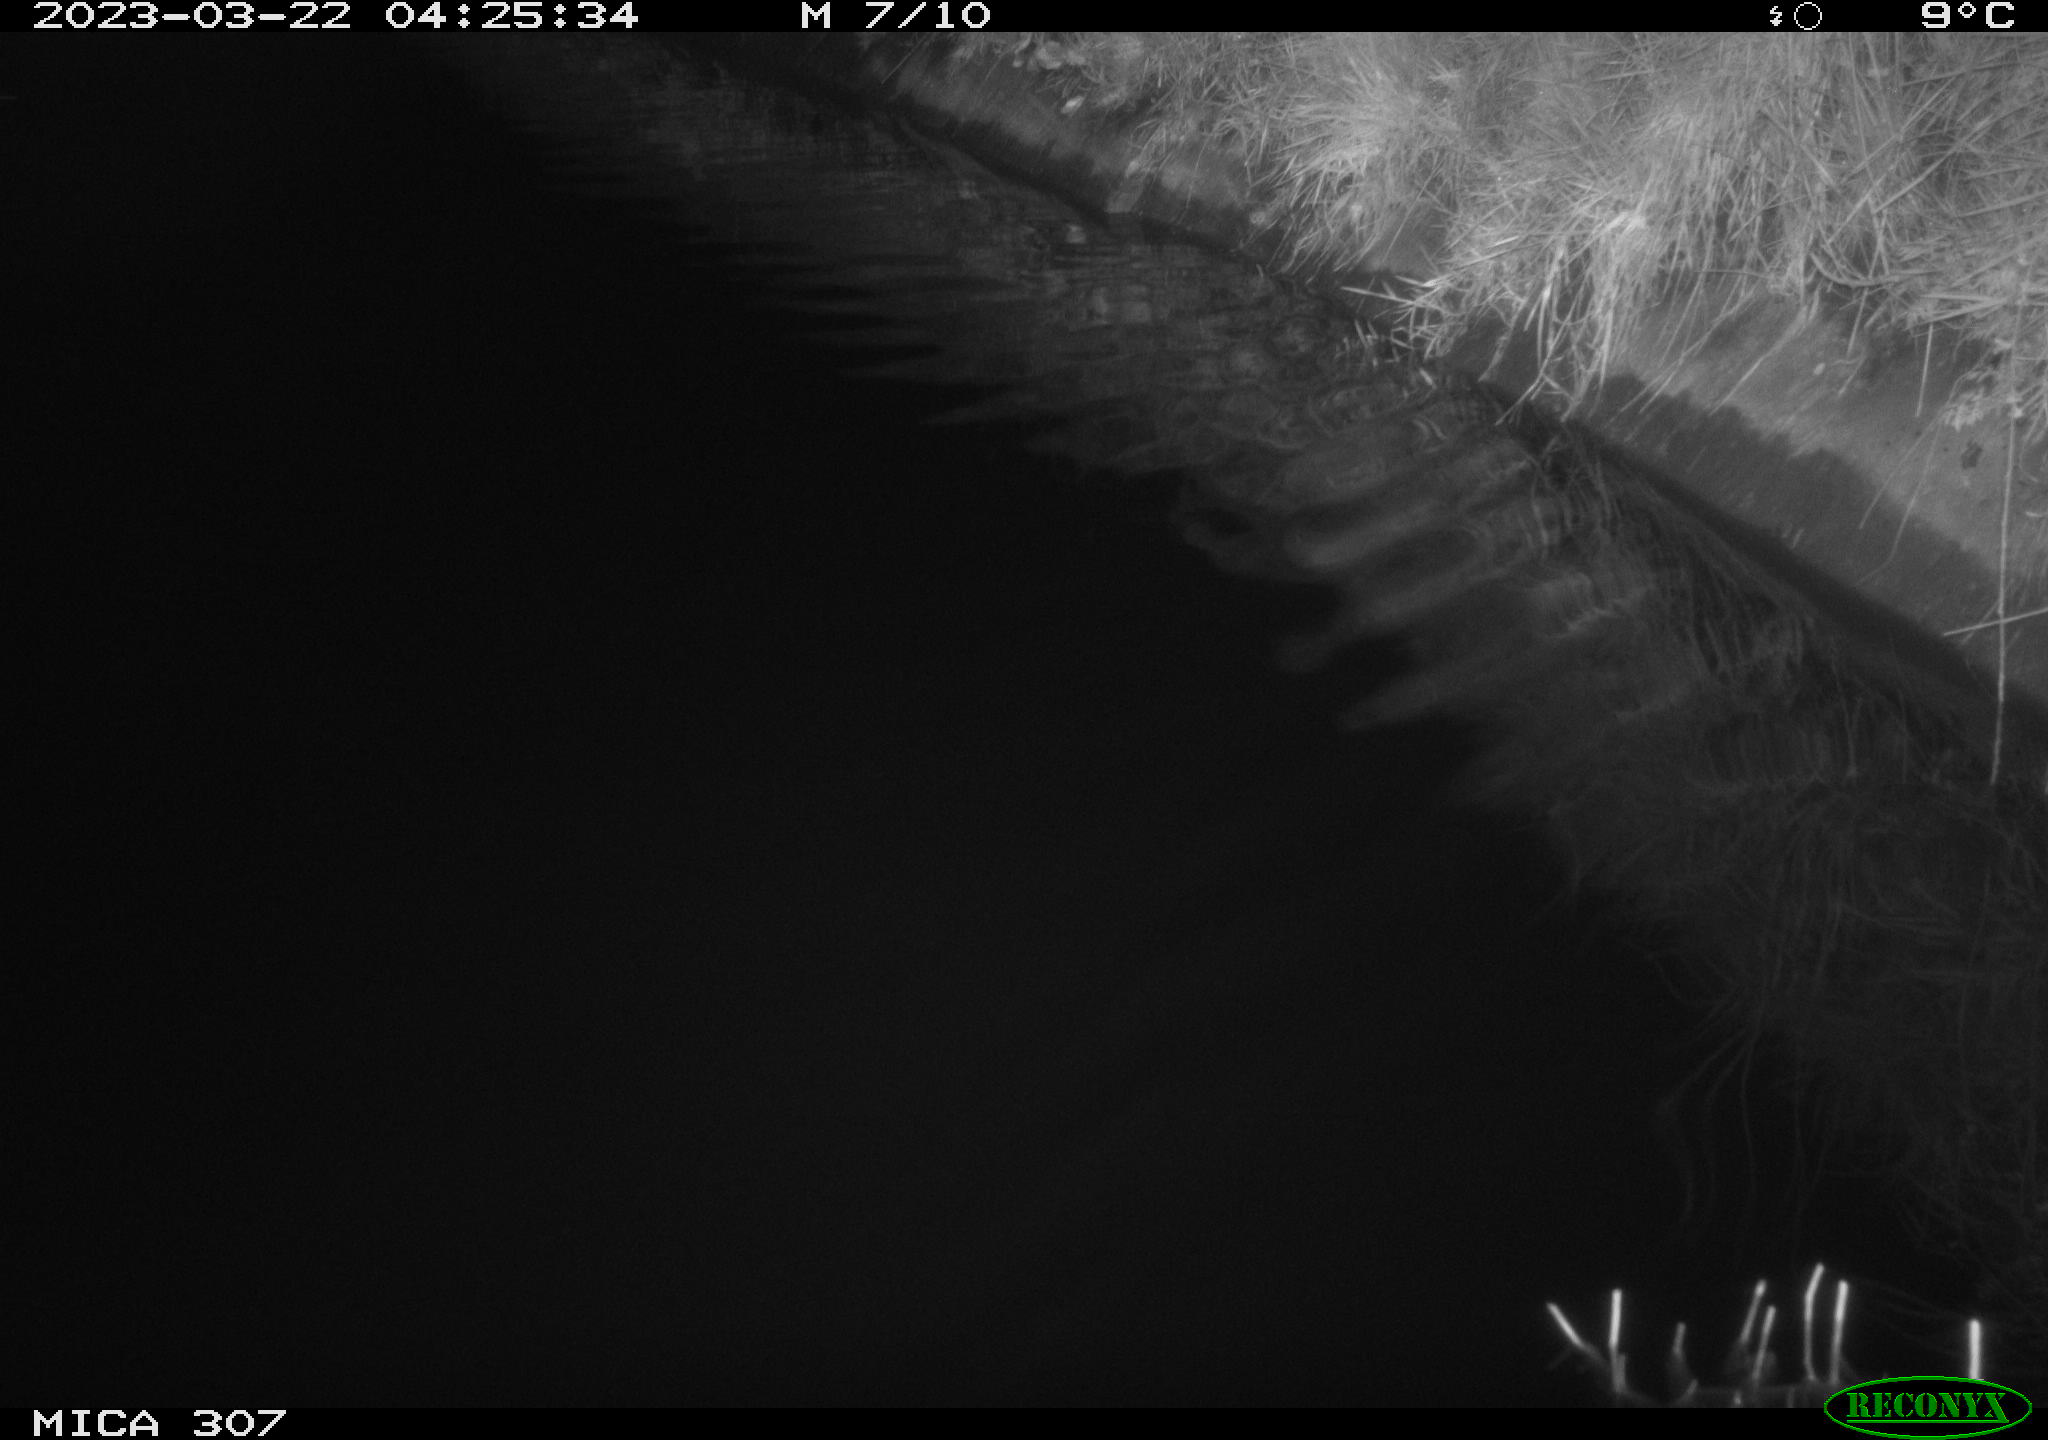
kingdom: Animalia
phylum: Chordata
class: Aves
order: Anseriformes
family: Anatidae
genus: Anas
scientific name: Anas
